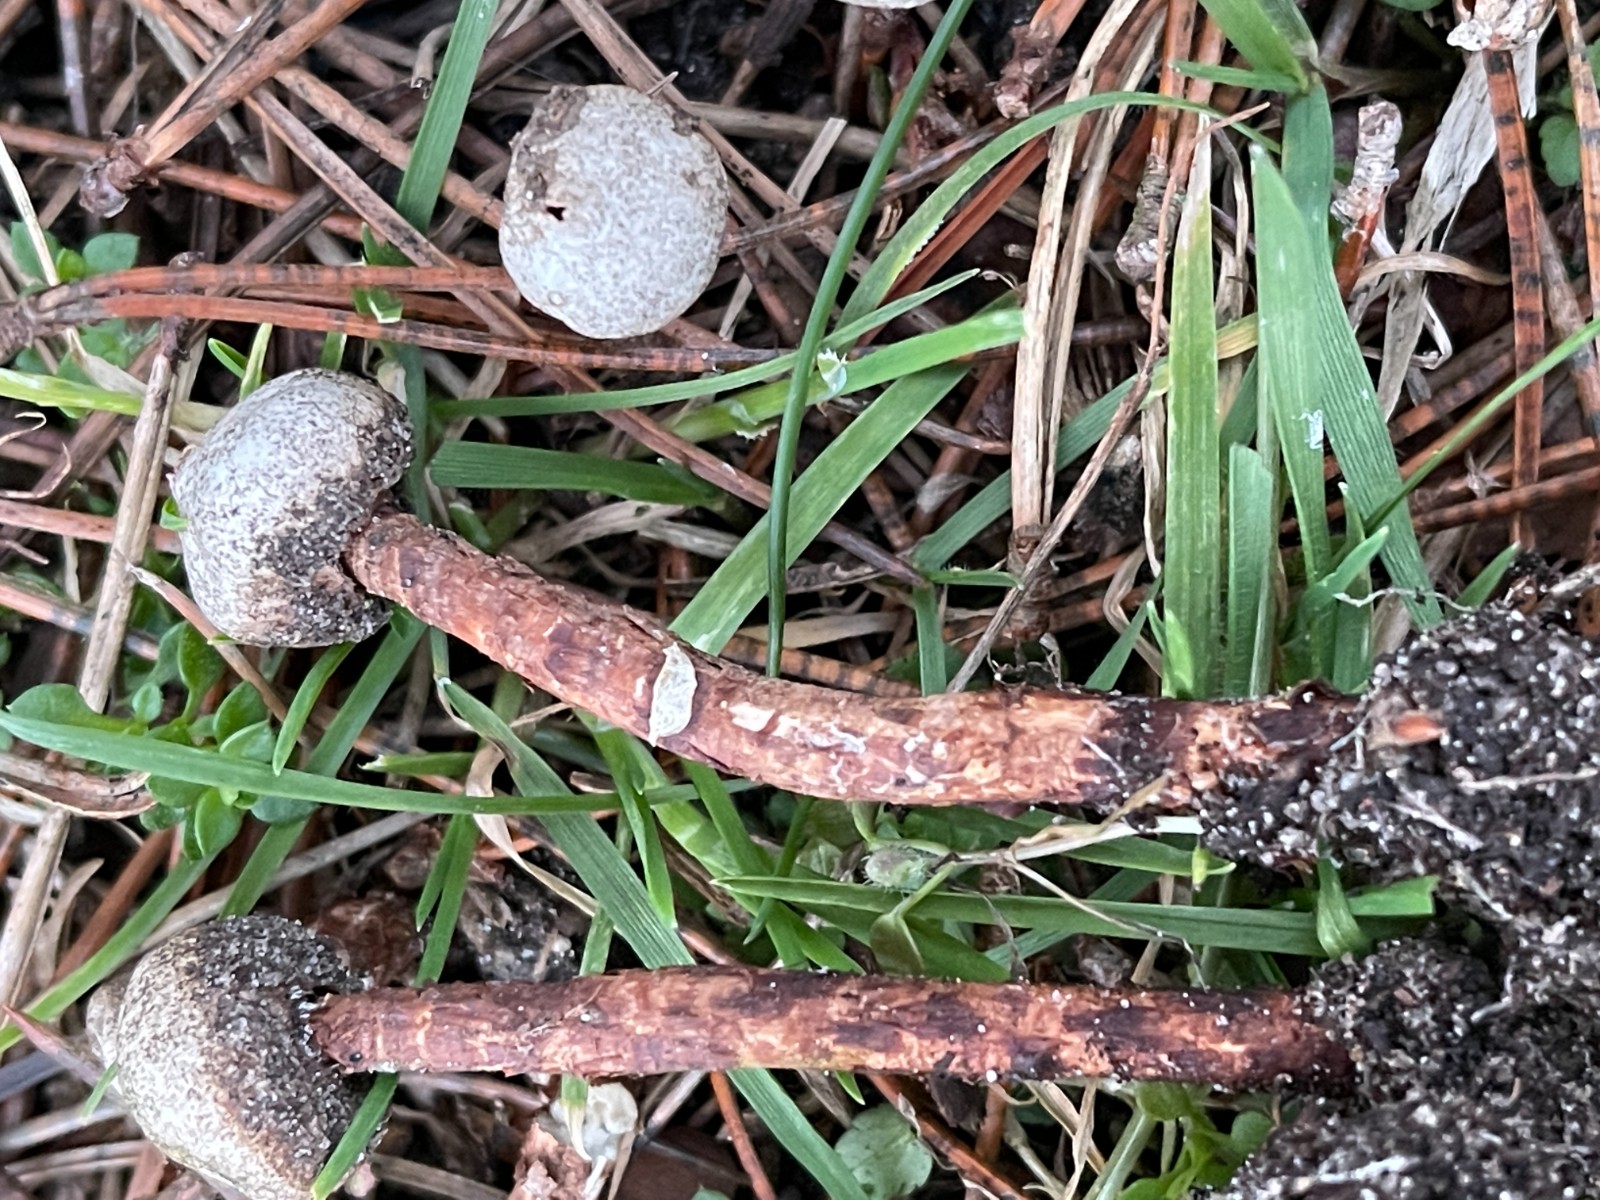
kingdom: Fungi
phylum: Basidiomycota
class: Agaricomycetes
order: Agaricales
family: Agaricaceae
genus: Tulostoma
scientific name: Tulostoma winterhoffii
